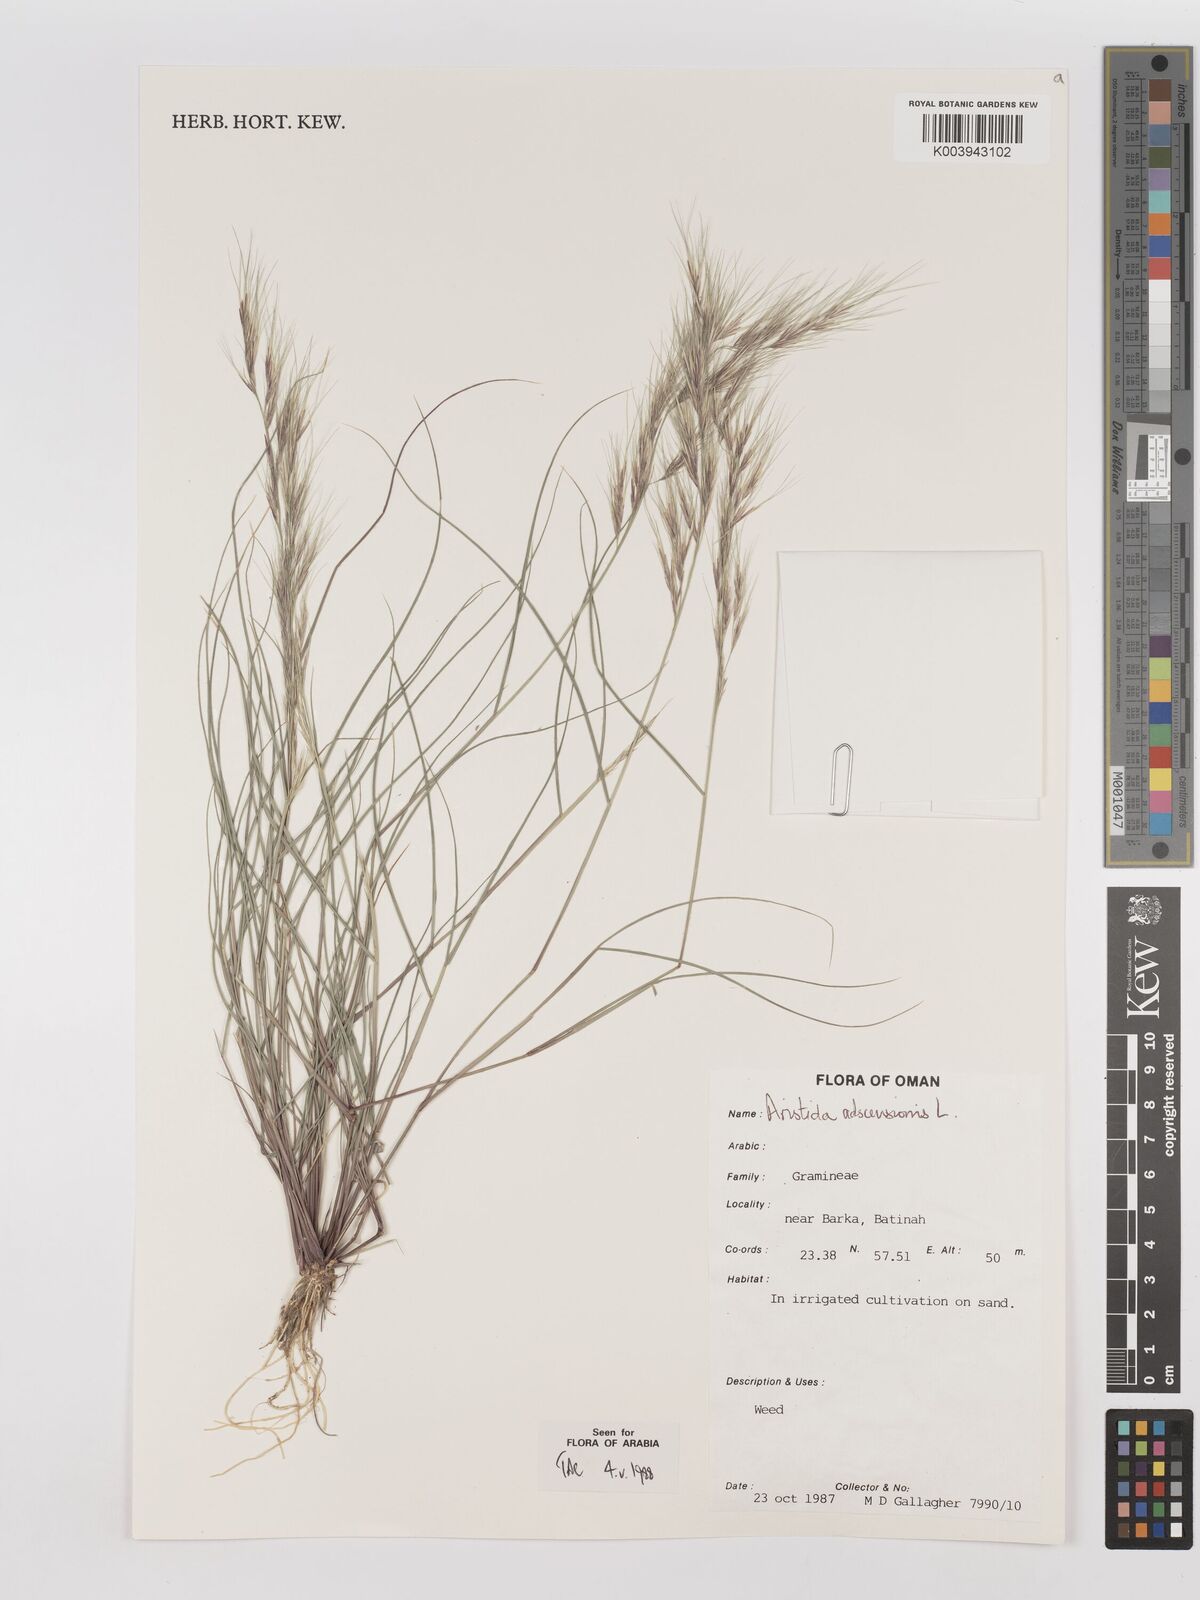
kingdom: Plantae
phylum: Tracheophyta
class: Liliopsida
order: Poales
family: Poaceae
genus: Aristida
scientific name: Aristida adscensionis
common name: Sixweeks threeawn
